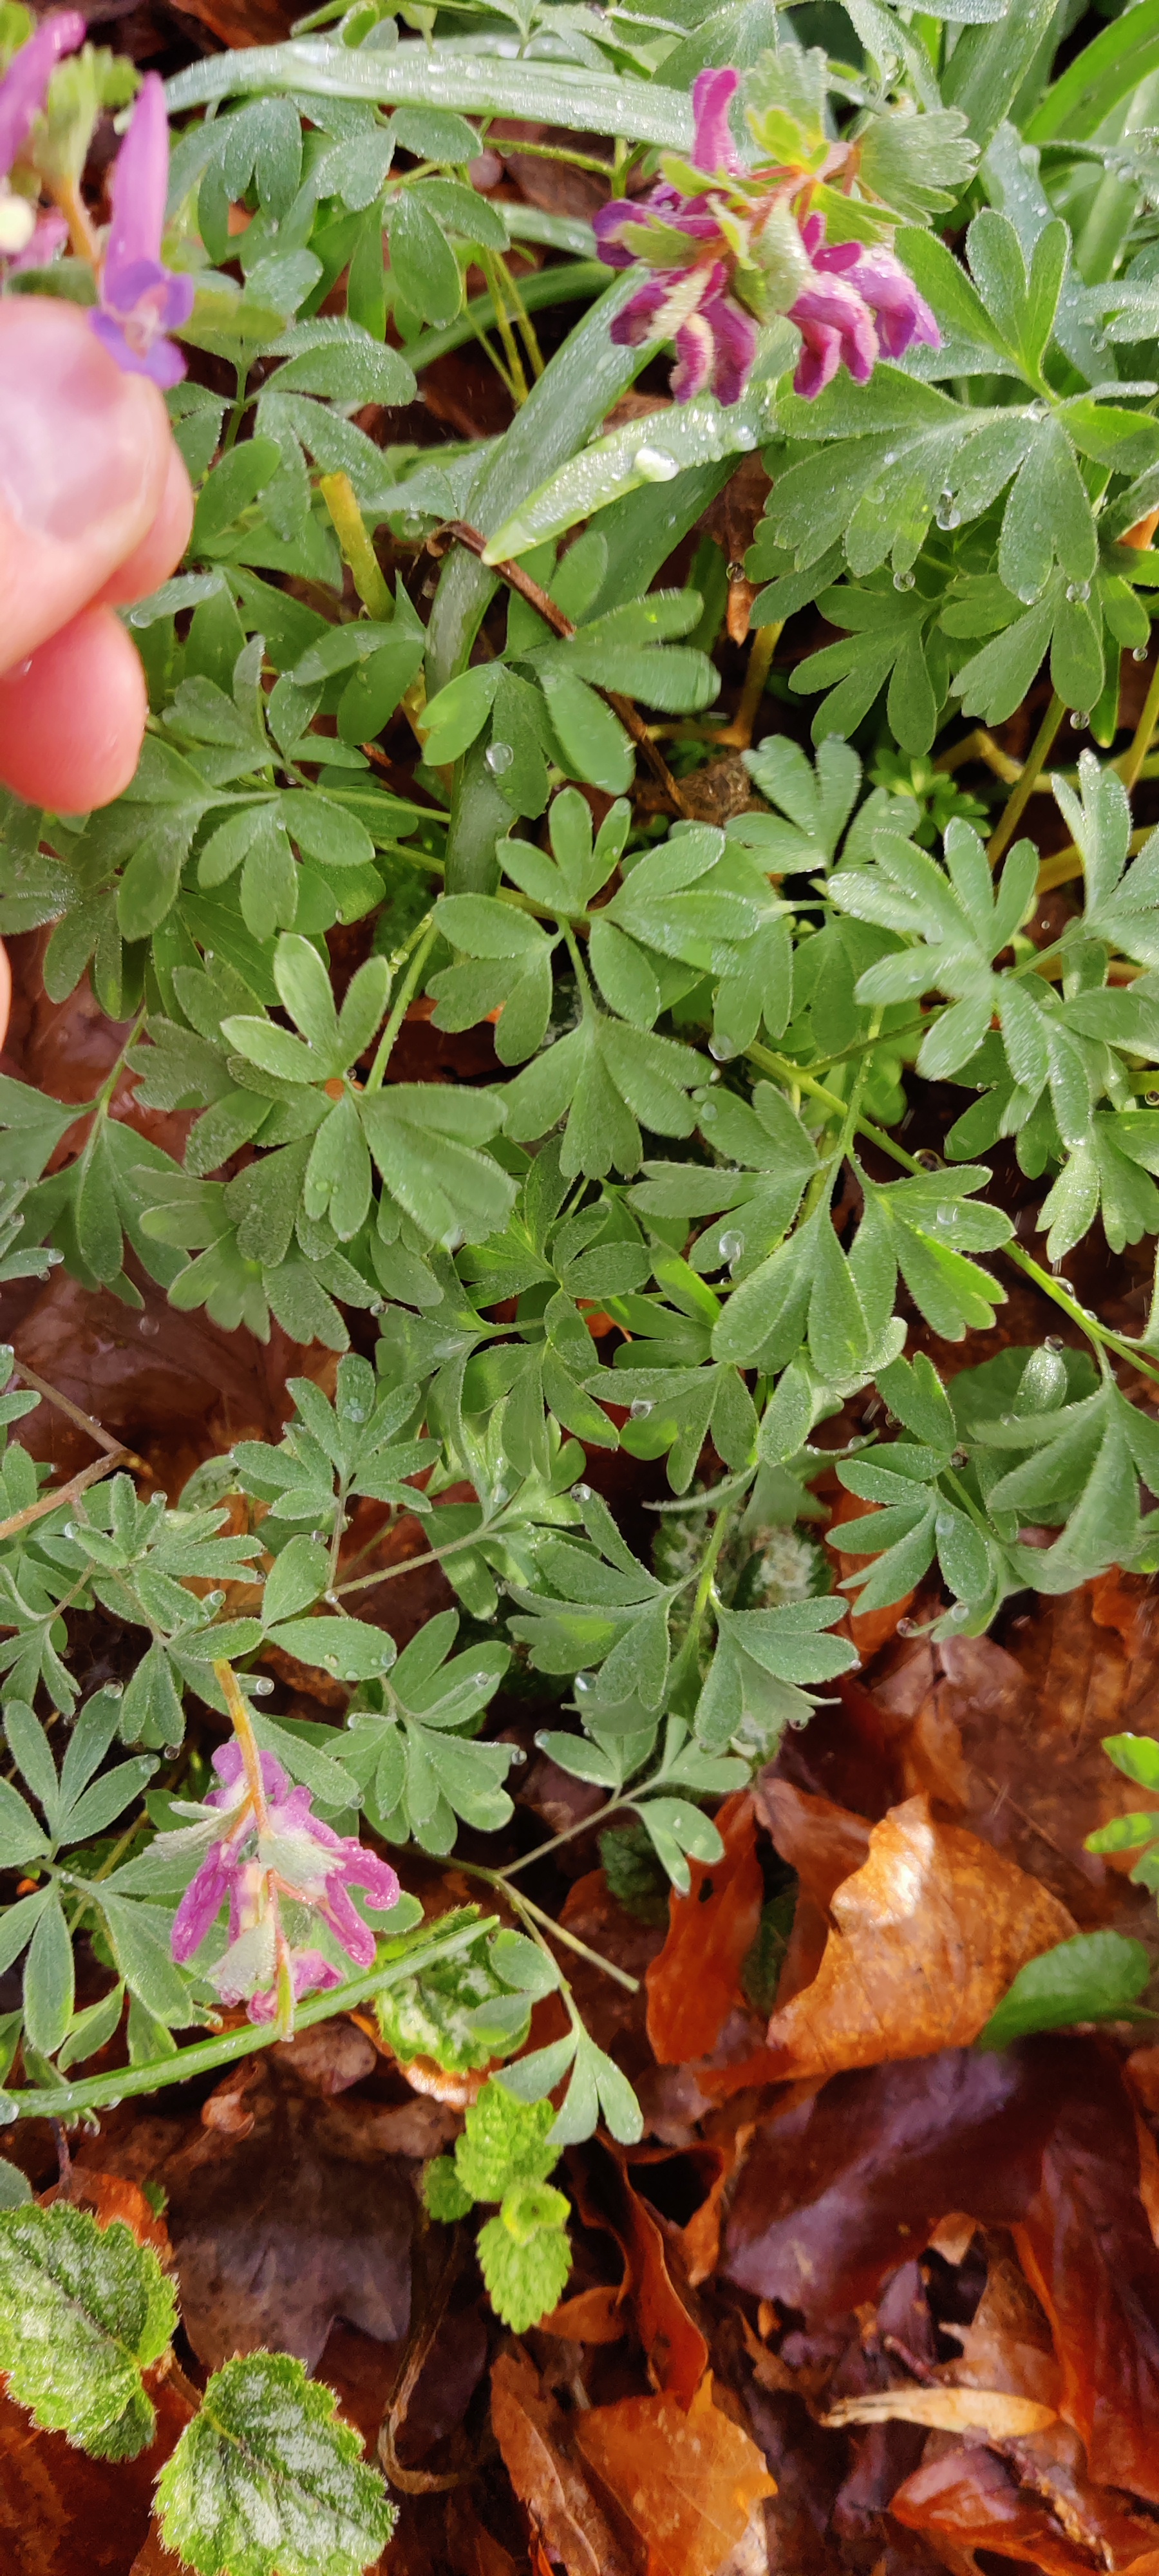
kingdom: Plantae
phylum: Tracheophyta
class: Magnoliopsida
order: Ranunculales
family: Papaveraceae
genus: Corydalis
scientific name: Corydalis solida
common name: Langstilket lærkespore
